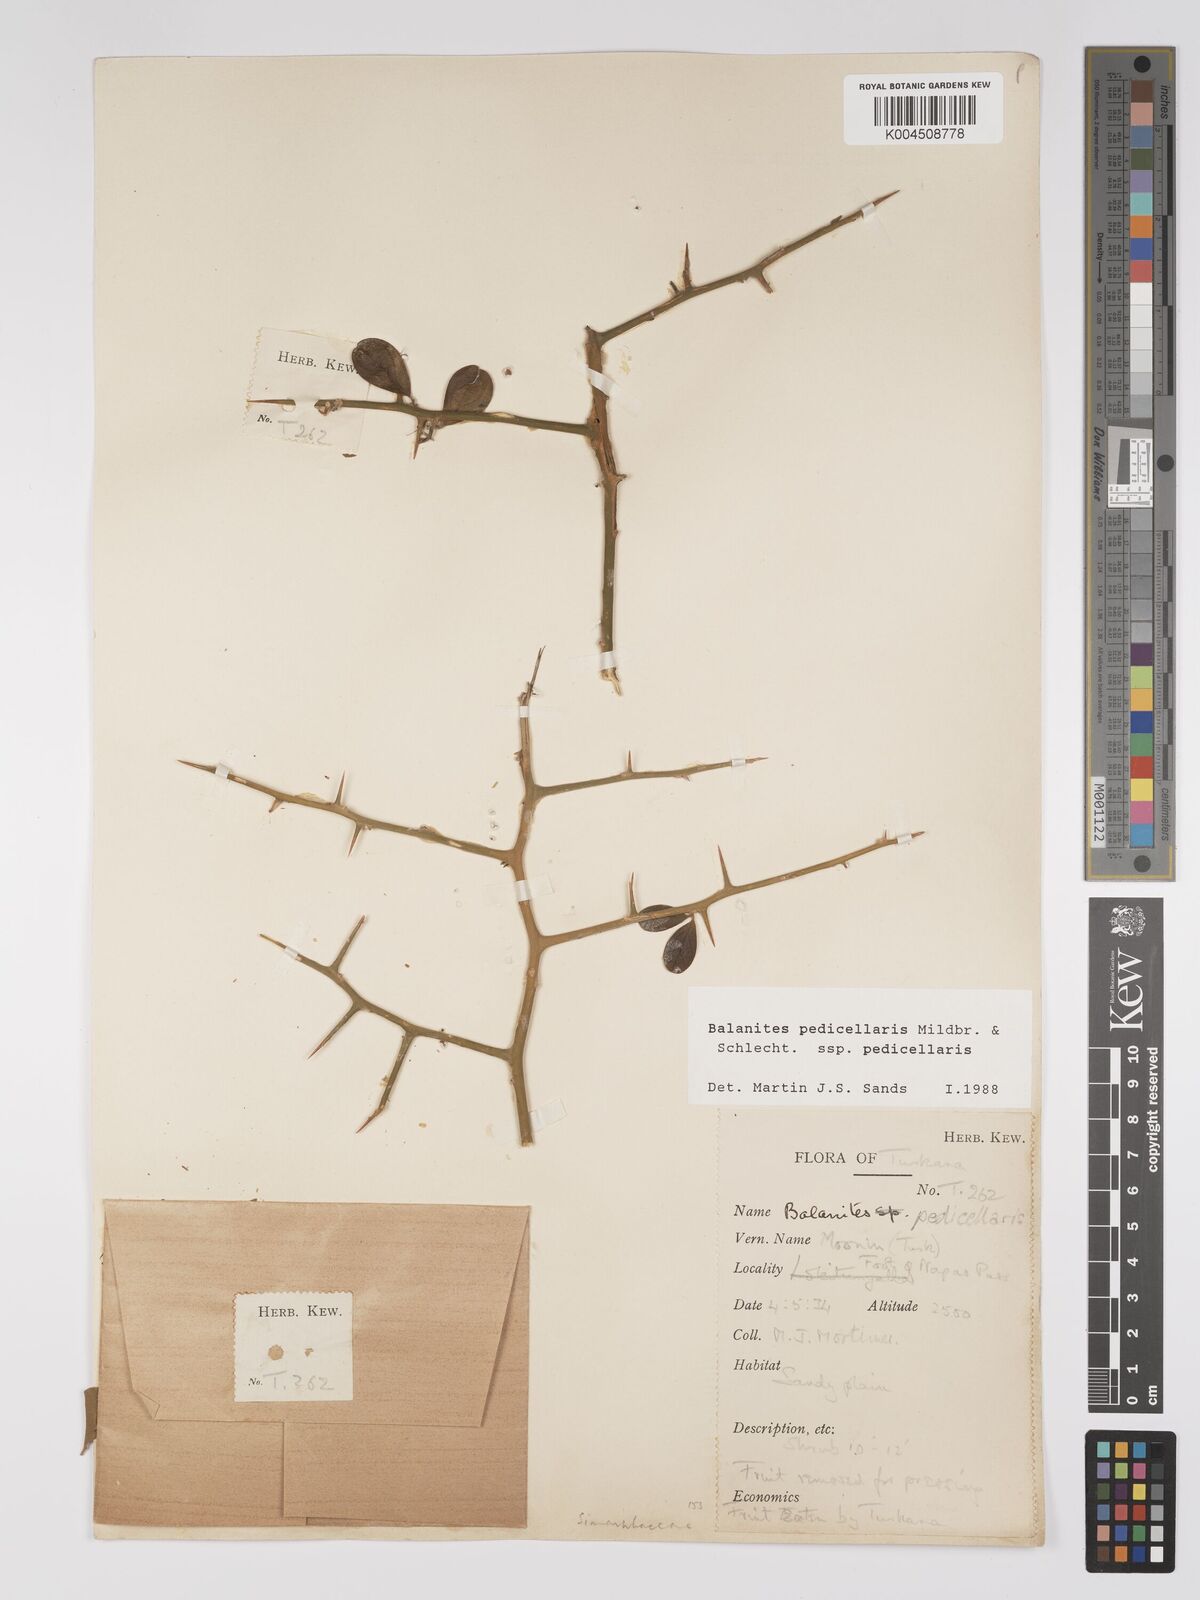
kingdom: Plantae
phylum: Tracheophyta
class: Magnoliopsida
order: Zygophyllales
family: Zygophyllaceae
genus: Balanites
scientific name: Balanites pedicellaris
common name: Small green-thorn
